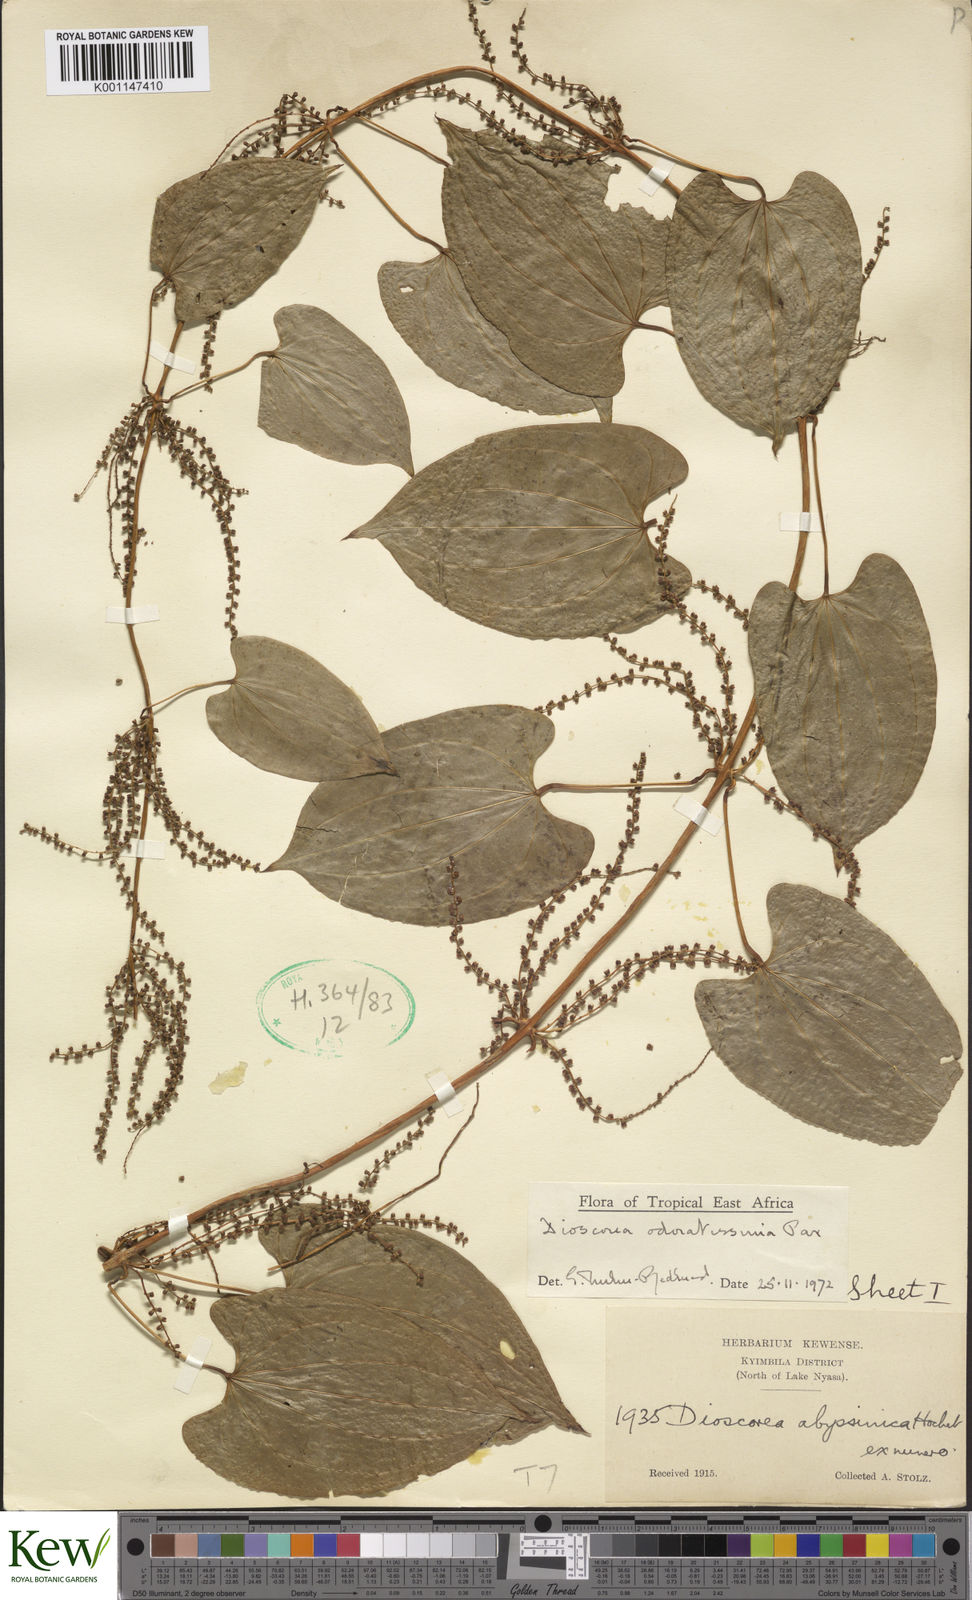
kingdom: Plantae
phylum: Tracheophyta
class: Liliopsida
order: Dioscoreales
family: Dioscoreaceae
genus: Dioscorea
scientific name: Dioscorea praehensilis
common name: Bush yam
